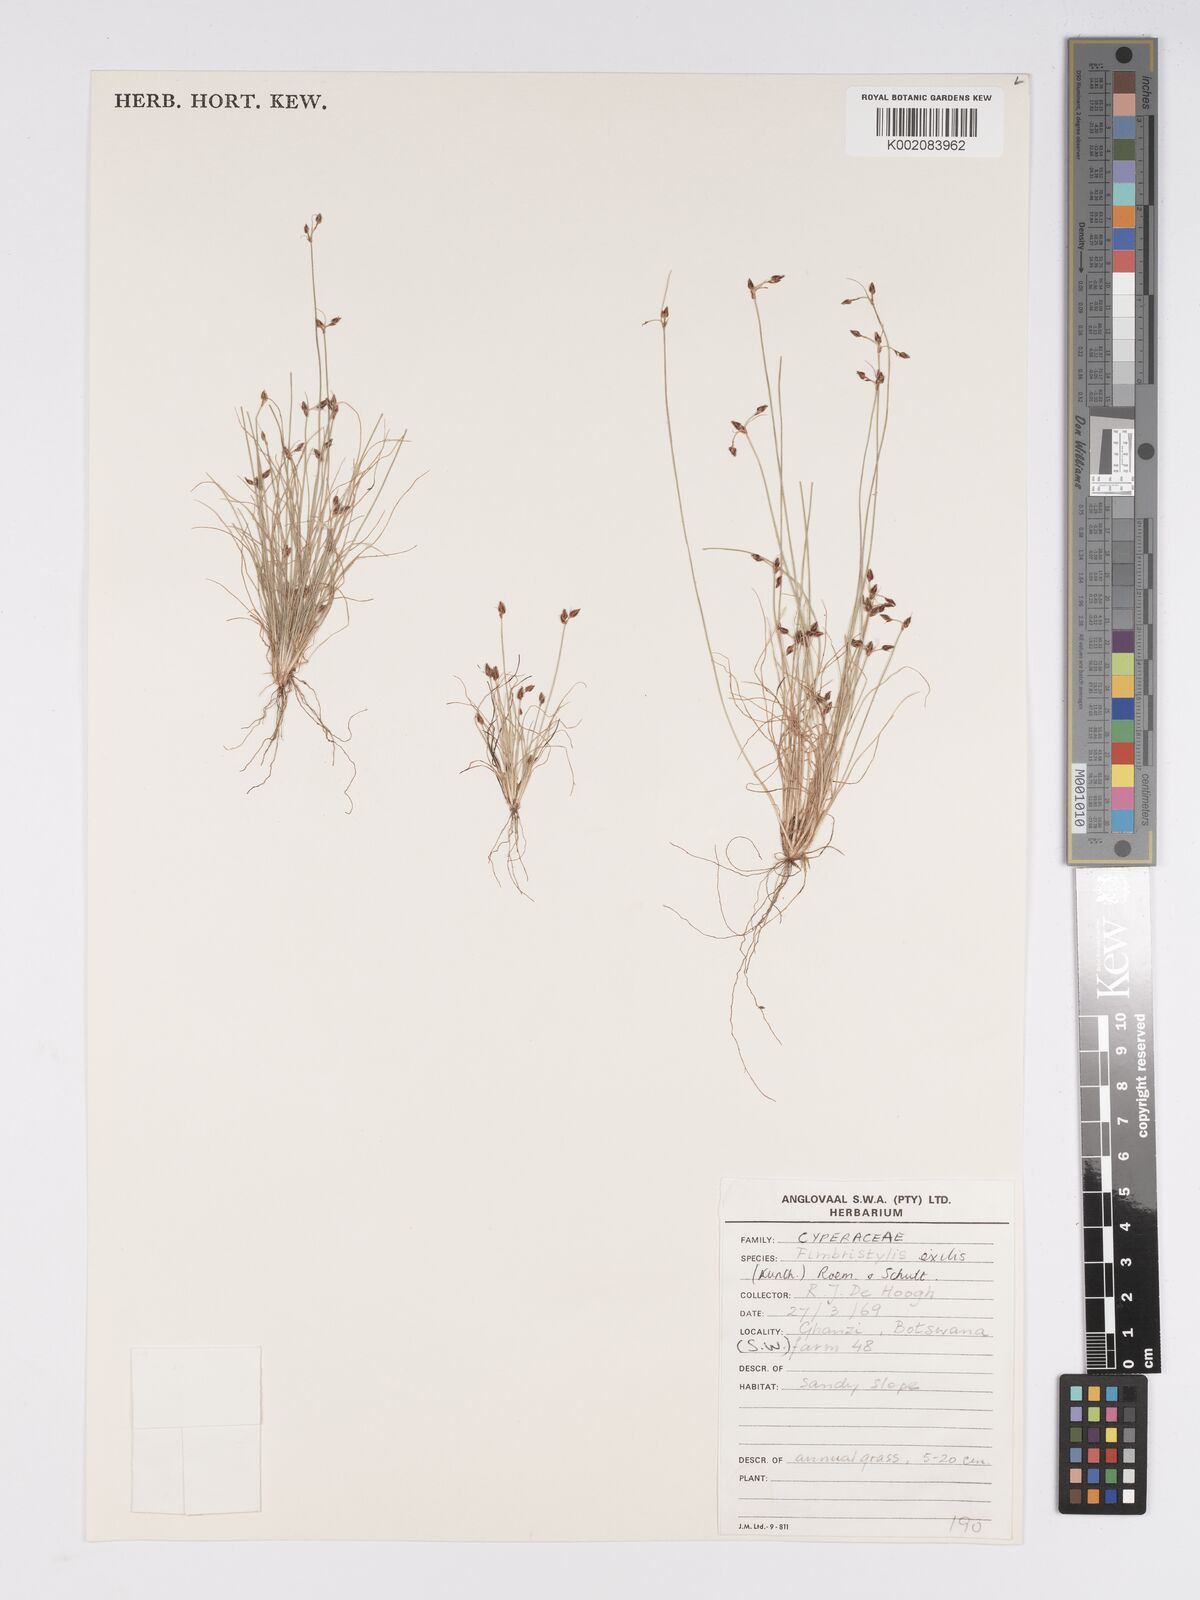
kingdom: Plantae
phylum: Tracheophyta
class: Liliopsida
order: Poales
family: Cyperaceae
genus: Bulbostylis
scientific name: Bulbostylis hispidula
